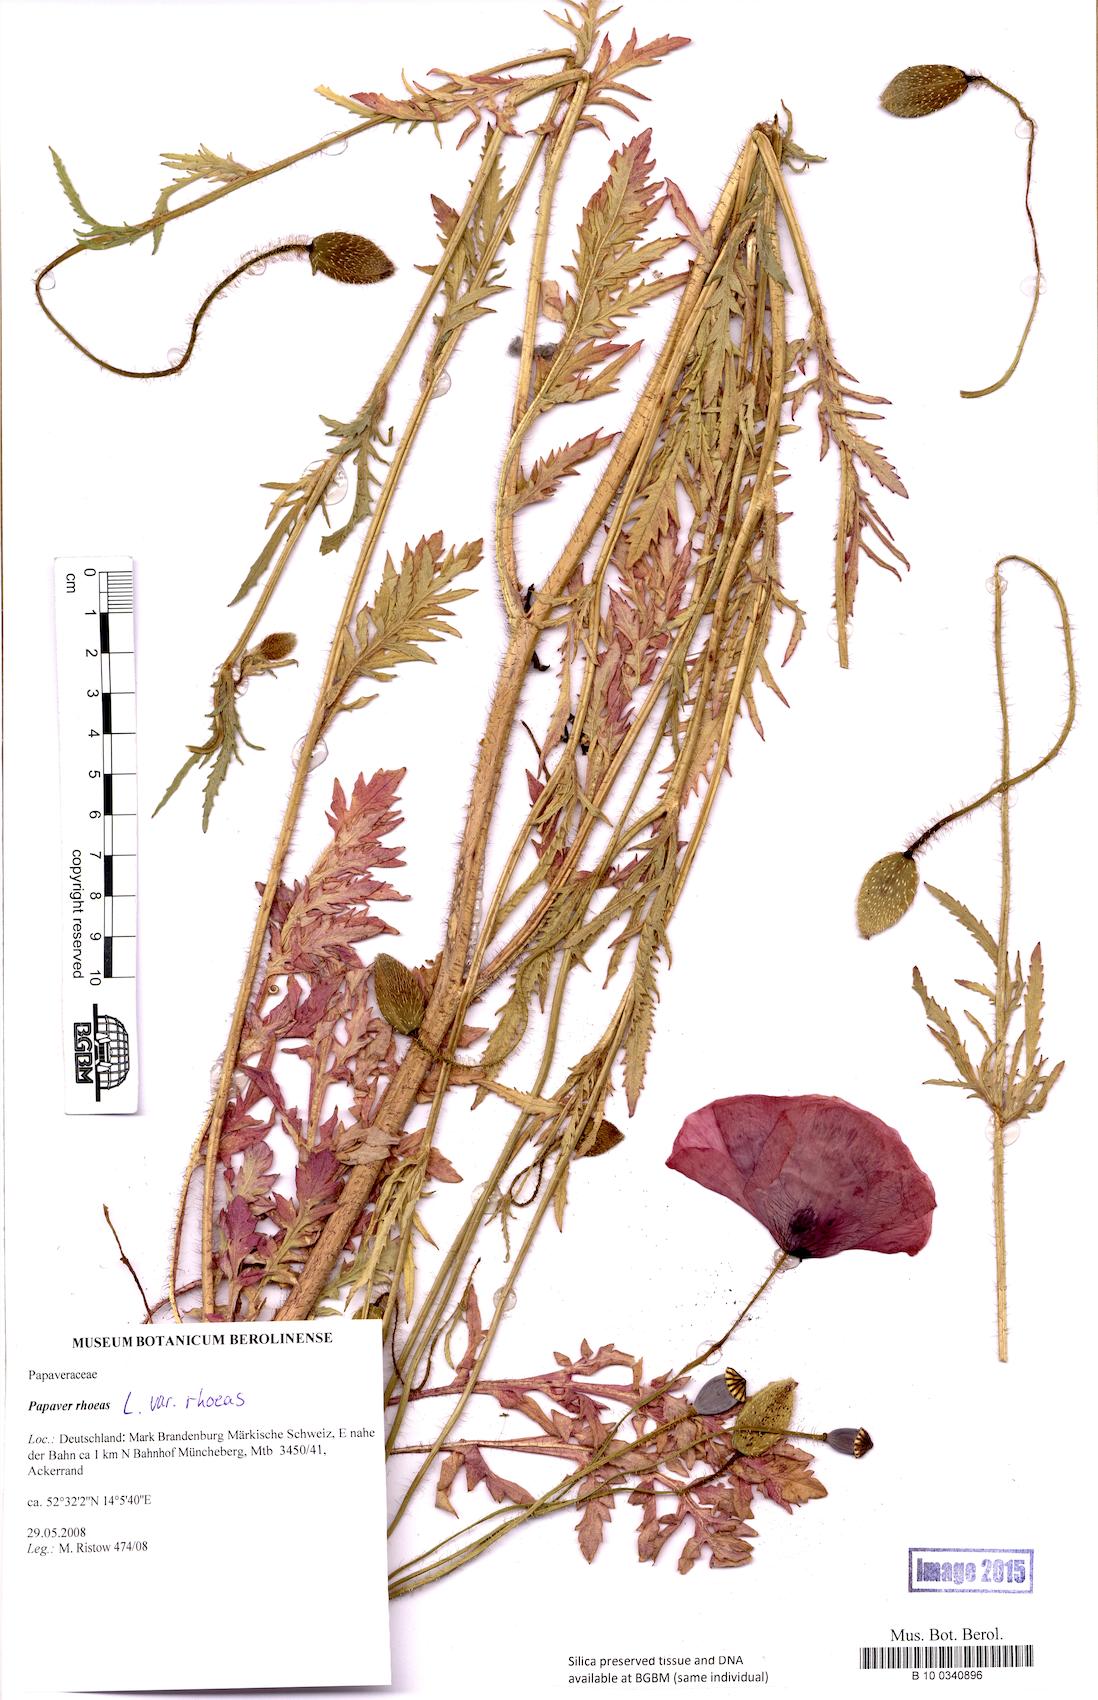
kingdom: Plantae
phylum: Tracheophyta
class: Magnoliopsida
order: Ranunculales
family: Papaveraceae
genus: Papaver
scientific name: Papaver rhoeas
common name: Corn poppy
